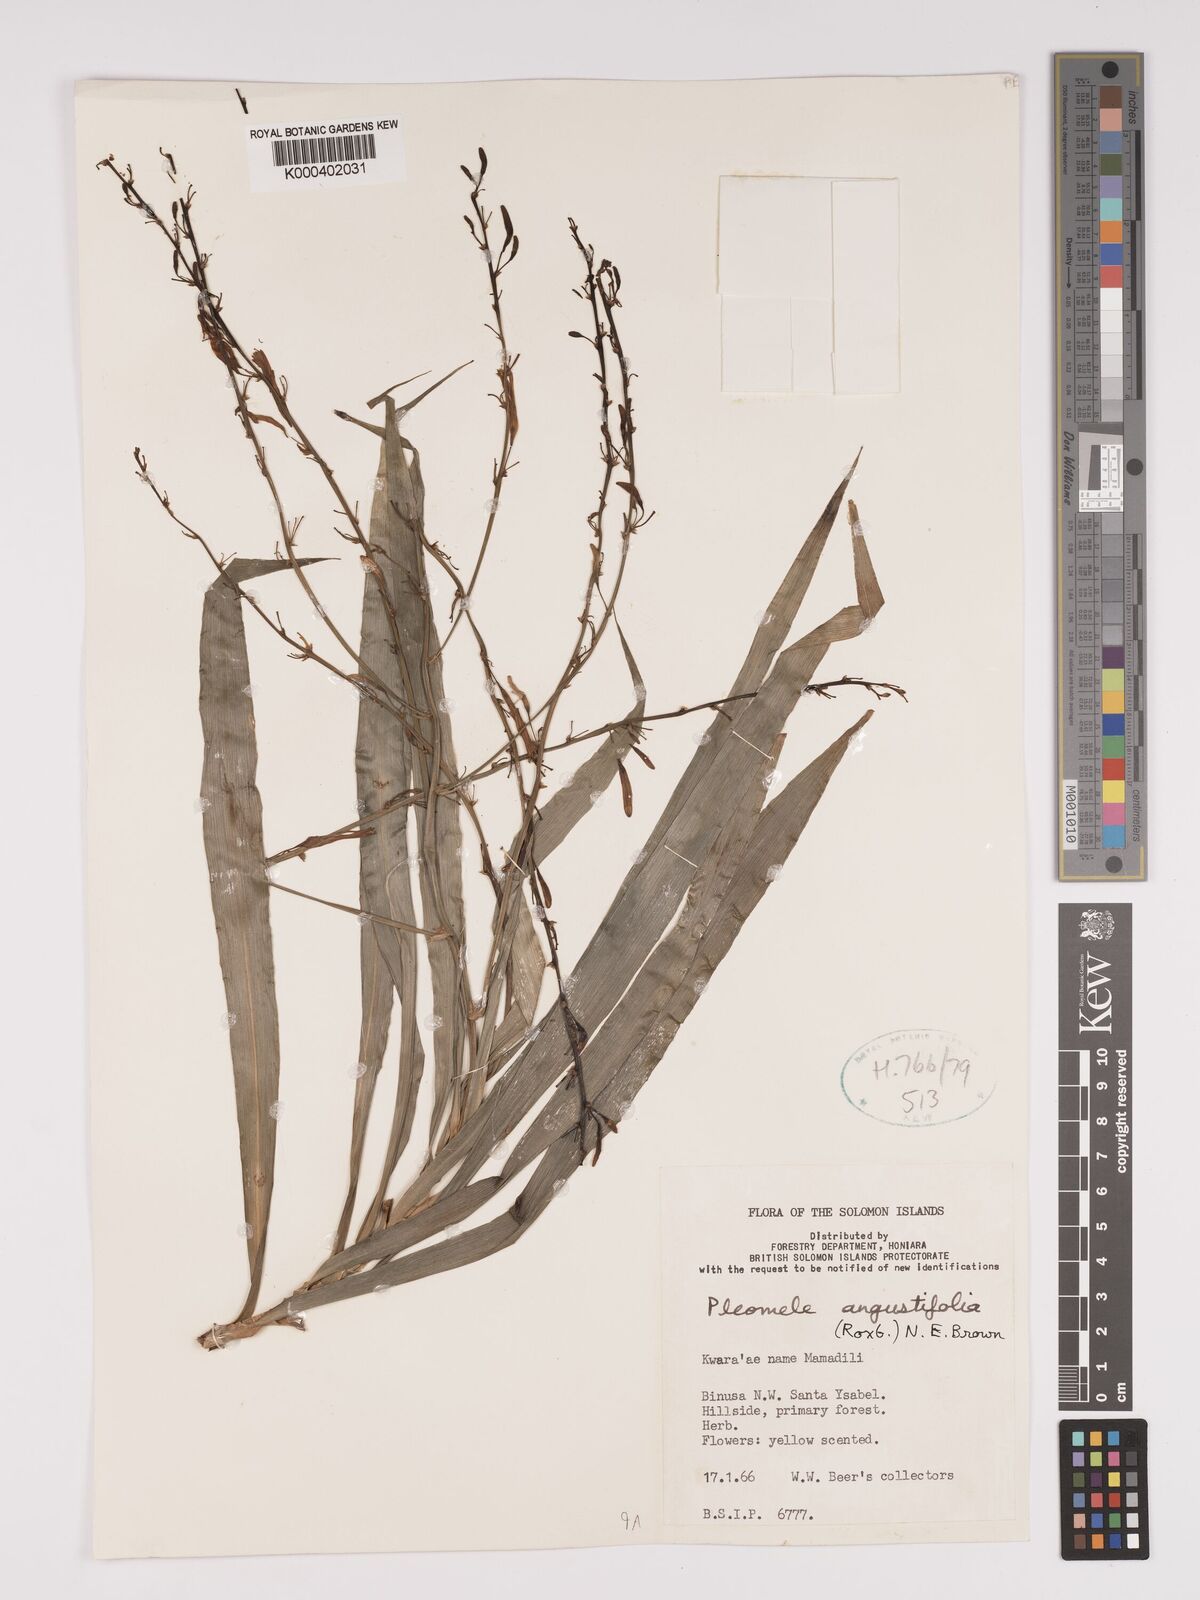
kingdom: Plantae
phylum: Tracheophyta
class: Liliopsida
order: Asparagales
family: Asparagaceae
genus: Dracaena
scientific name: Dracaena angustifolia
